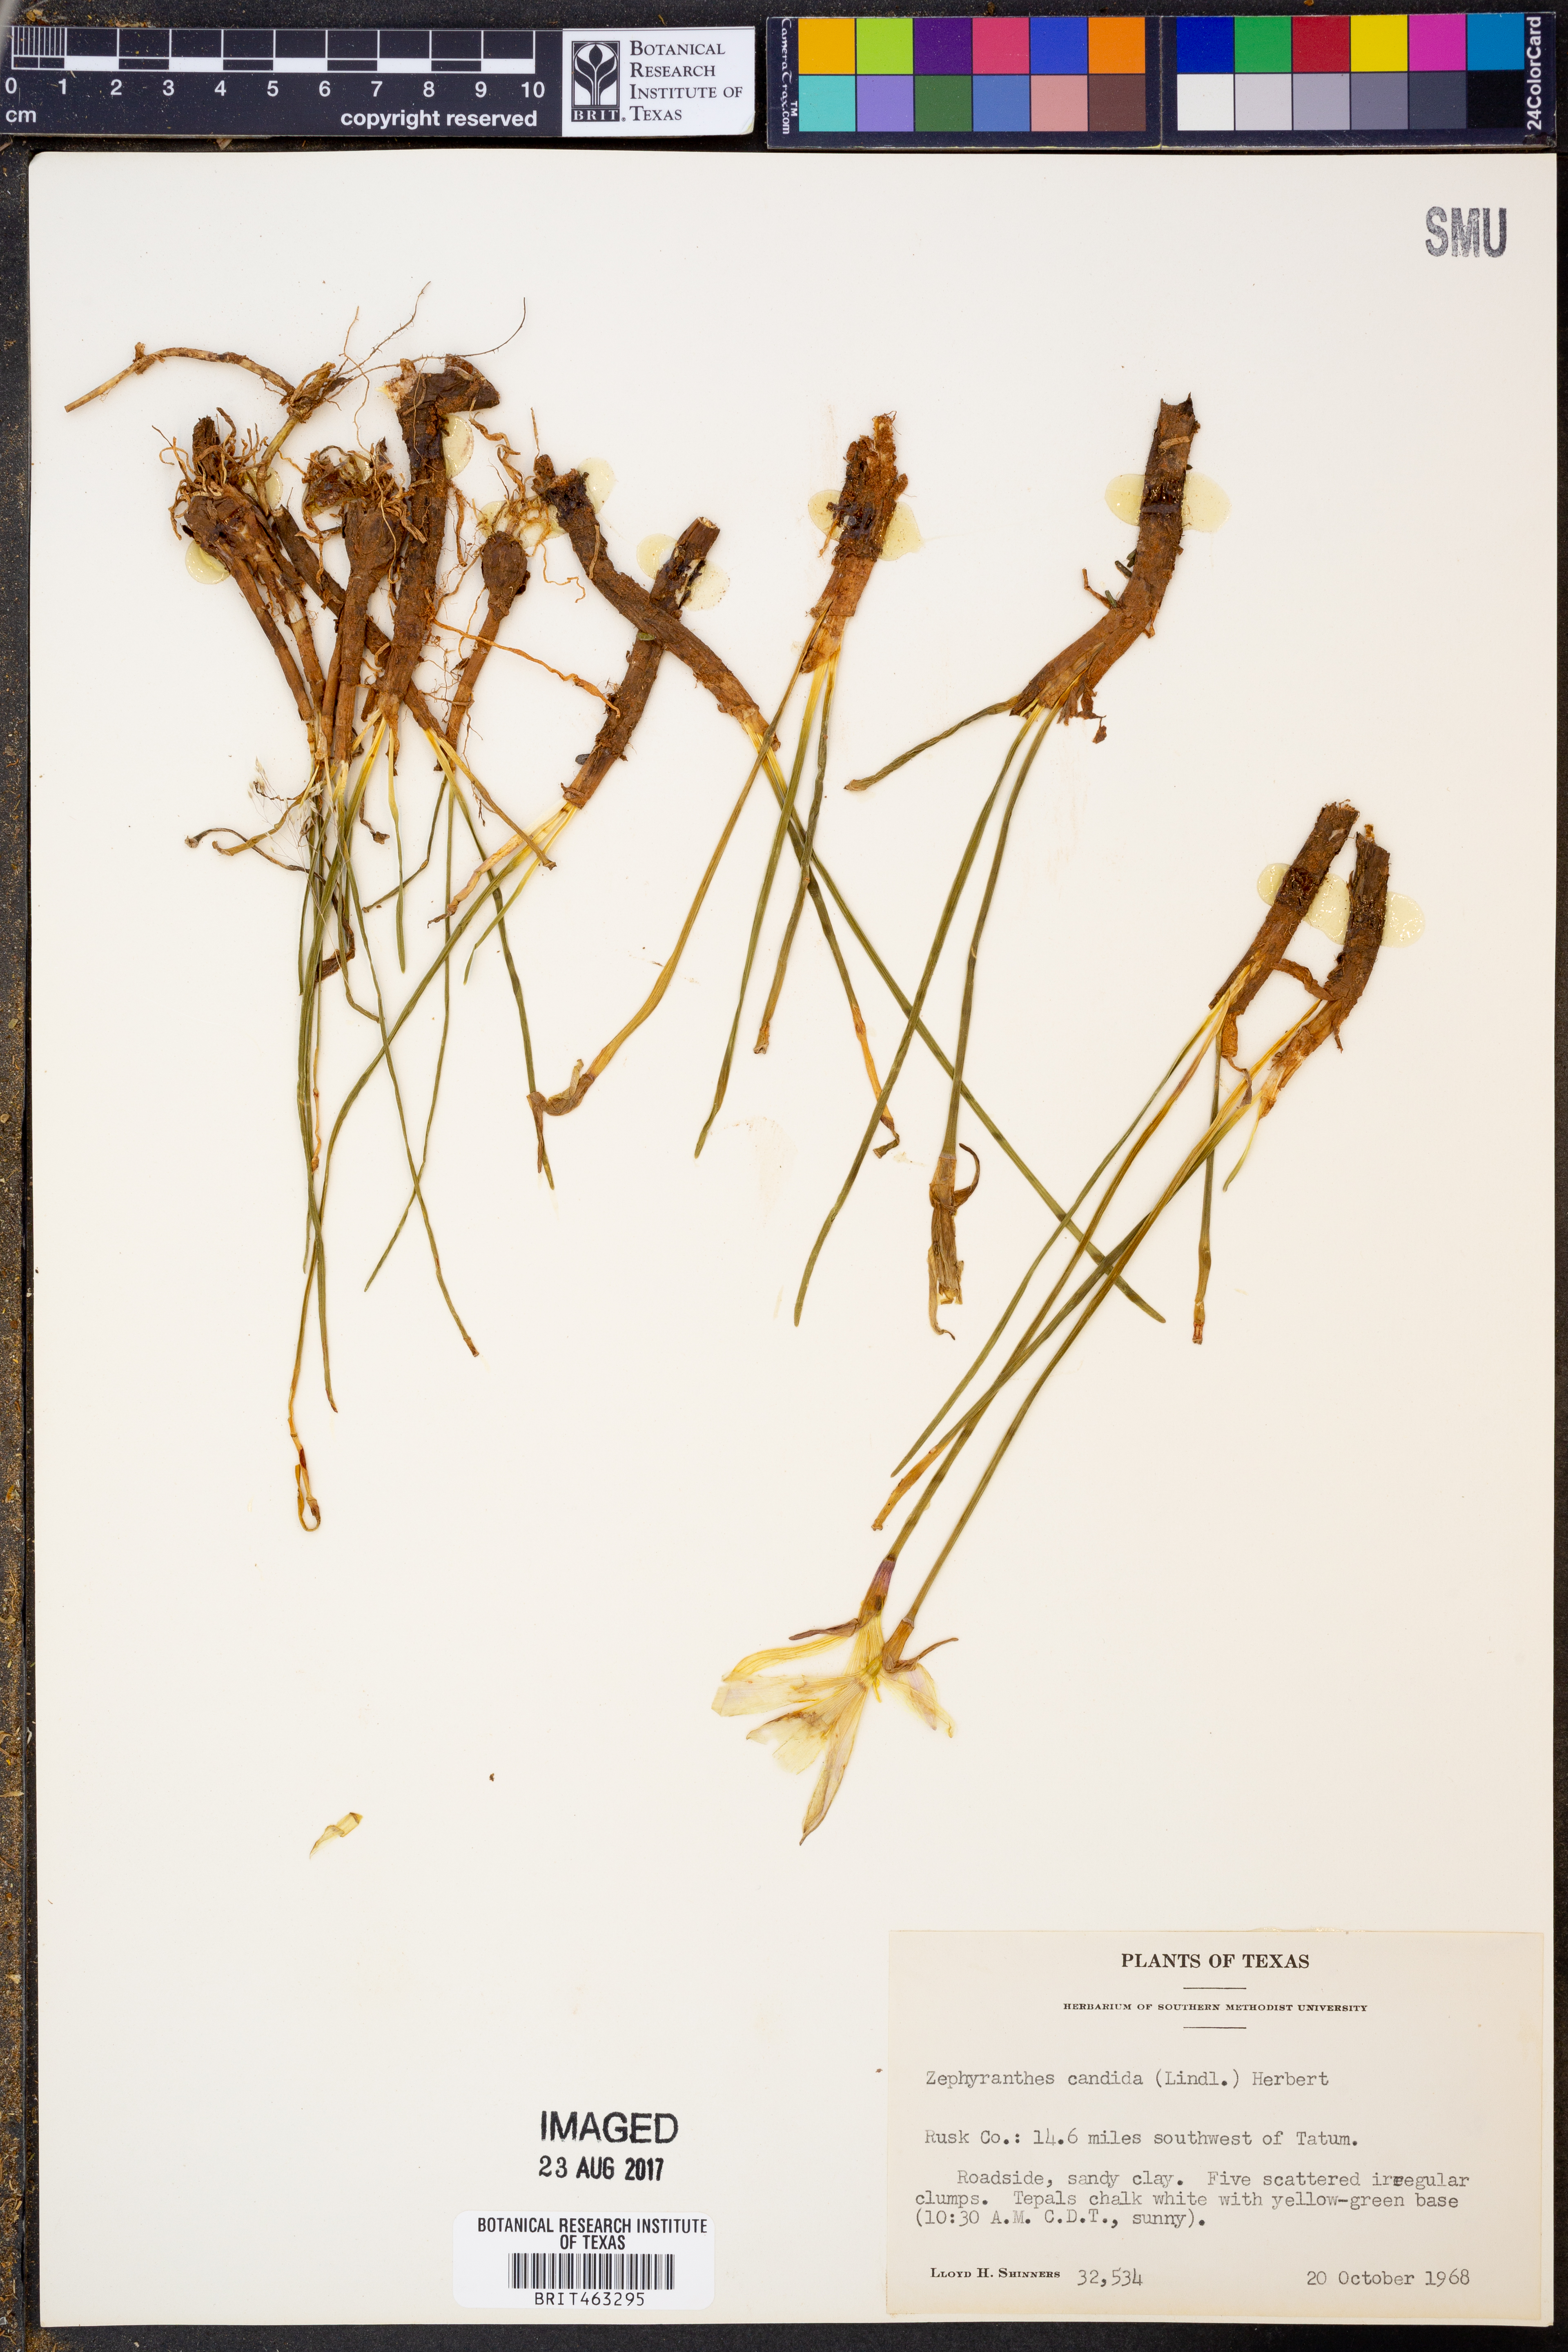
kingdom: Plantae
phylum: Tracheophyta
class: Liliopsida
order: Asparagales
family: Amaryllidaceae
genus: Zephyranthes
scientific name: Zephyranthes candida
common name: Autumn zephyrlily
